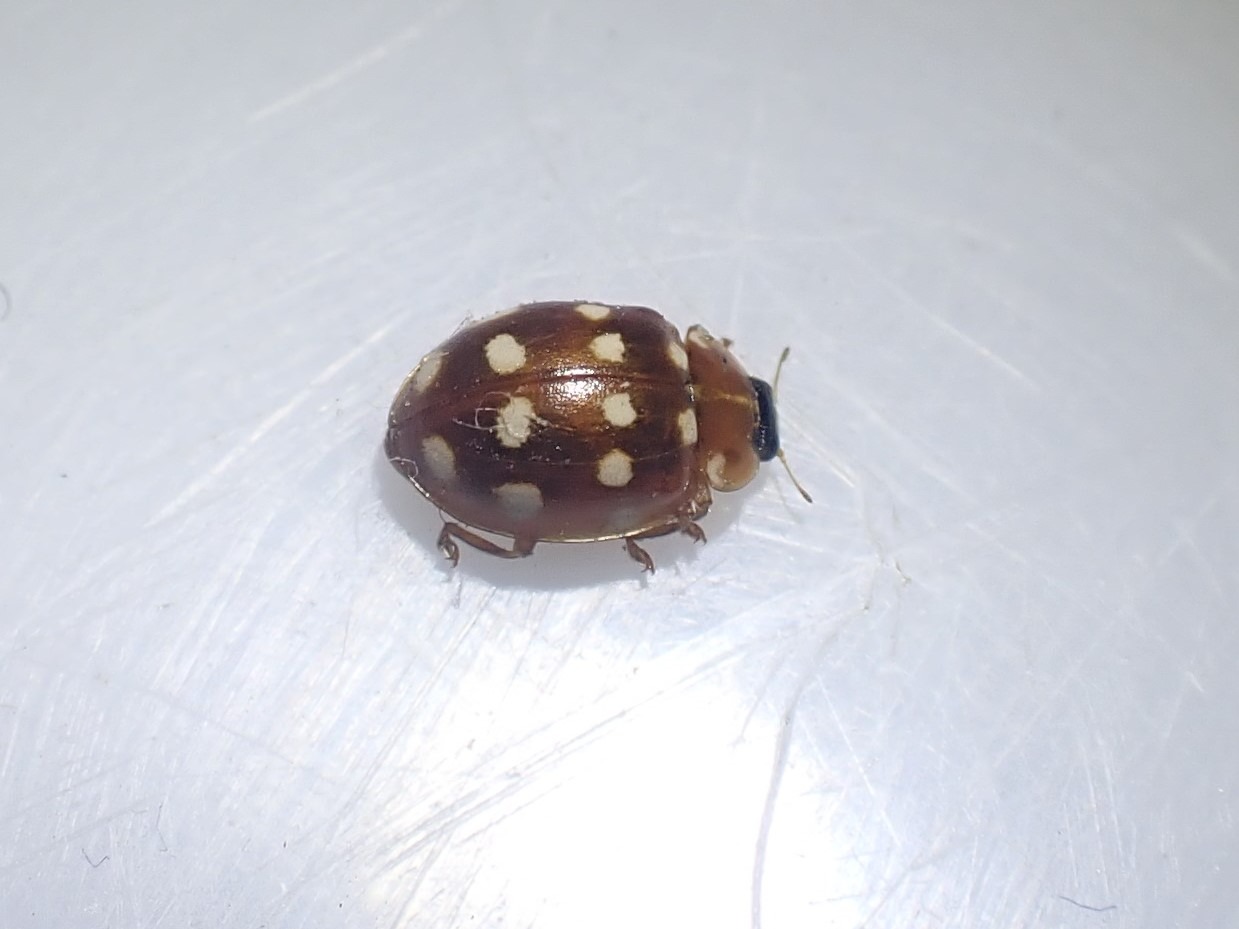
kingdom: Animalia
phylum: Arthropoda
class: Insecta
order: Coleoptera
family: Coccinellidae
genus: Calvia
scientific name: Calvia quatuordecimguttata
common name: Fjortenplettet mariehøne
